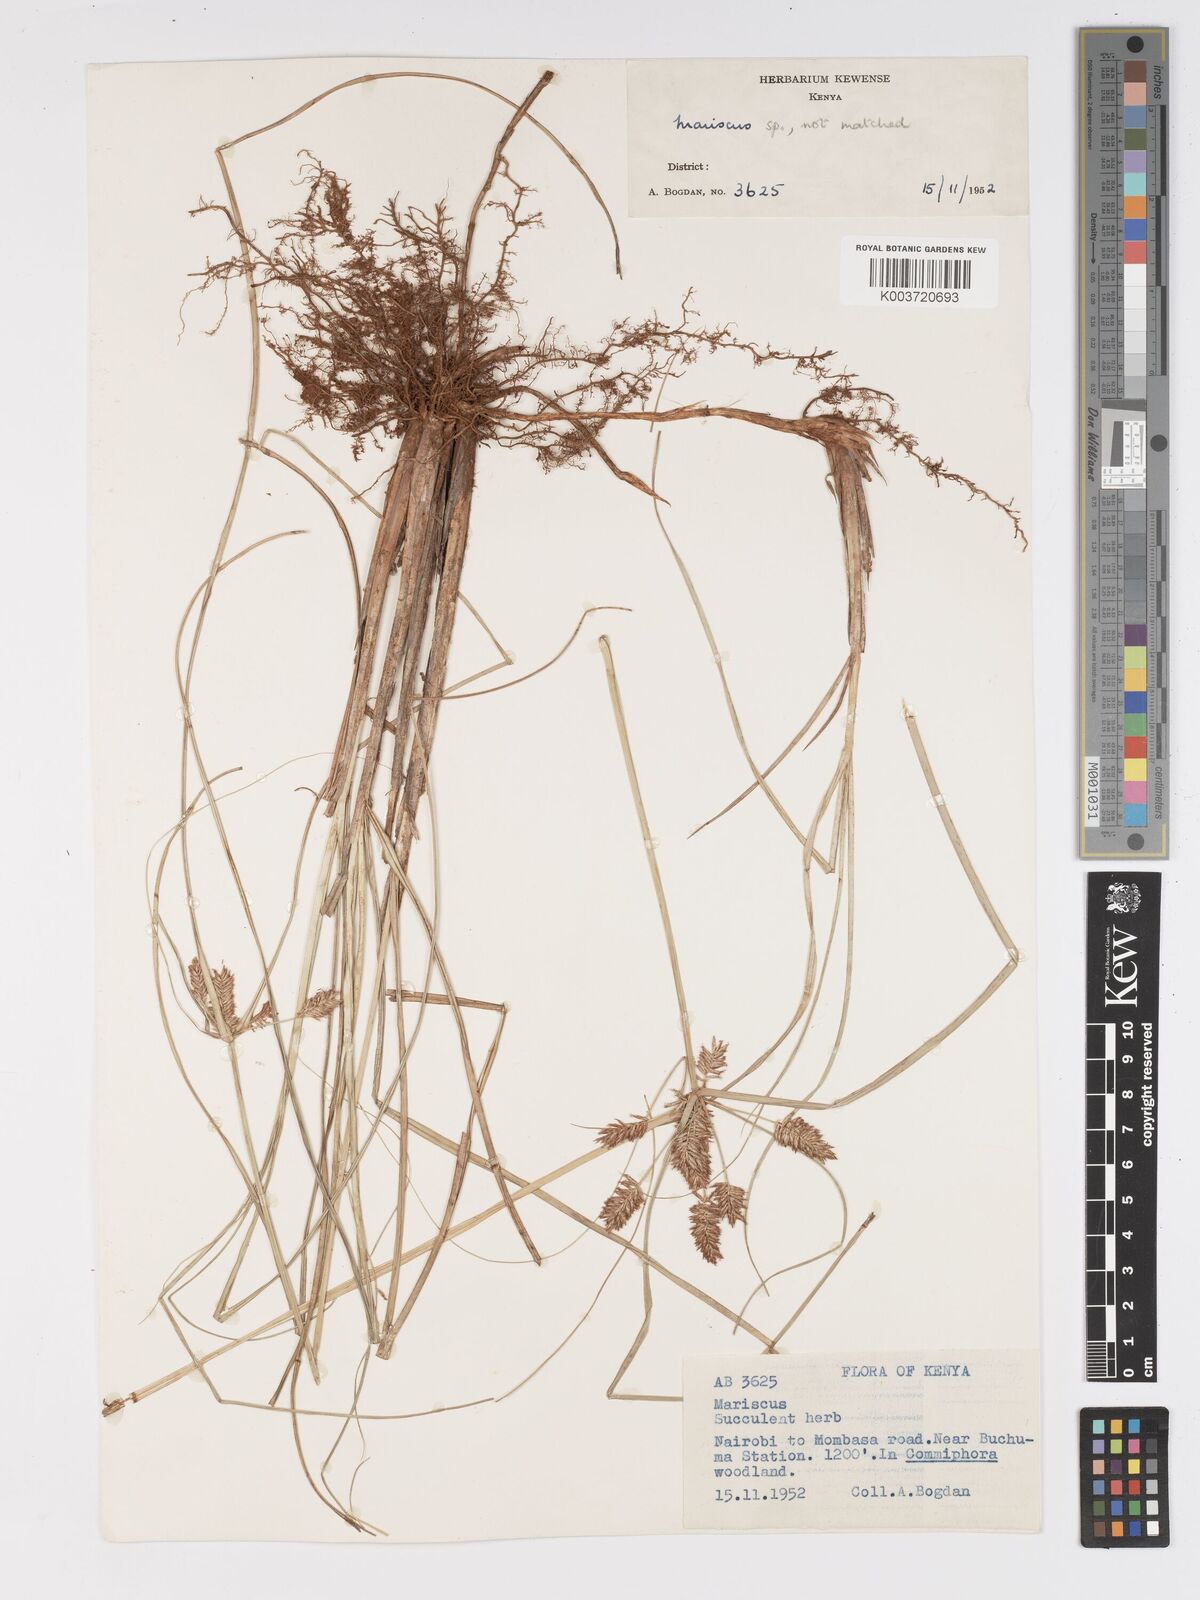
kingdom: Plantae
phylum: Tracheophyta
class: Liliopsida
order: Poales
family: Cyperaceae
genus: Cyperus
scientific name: Cyperus rohlfsii
